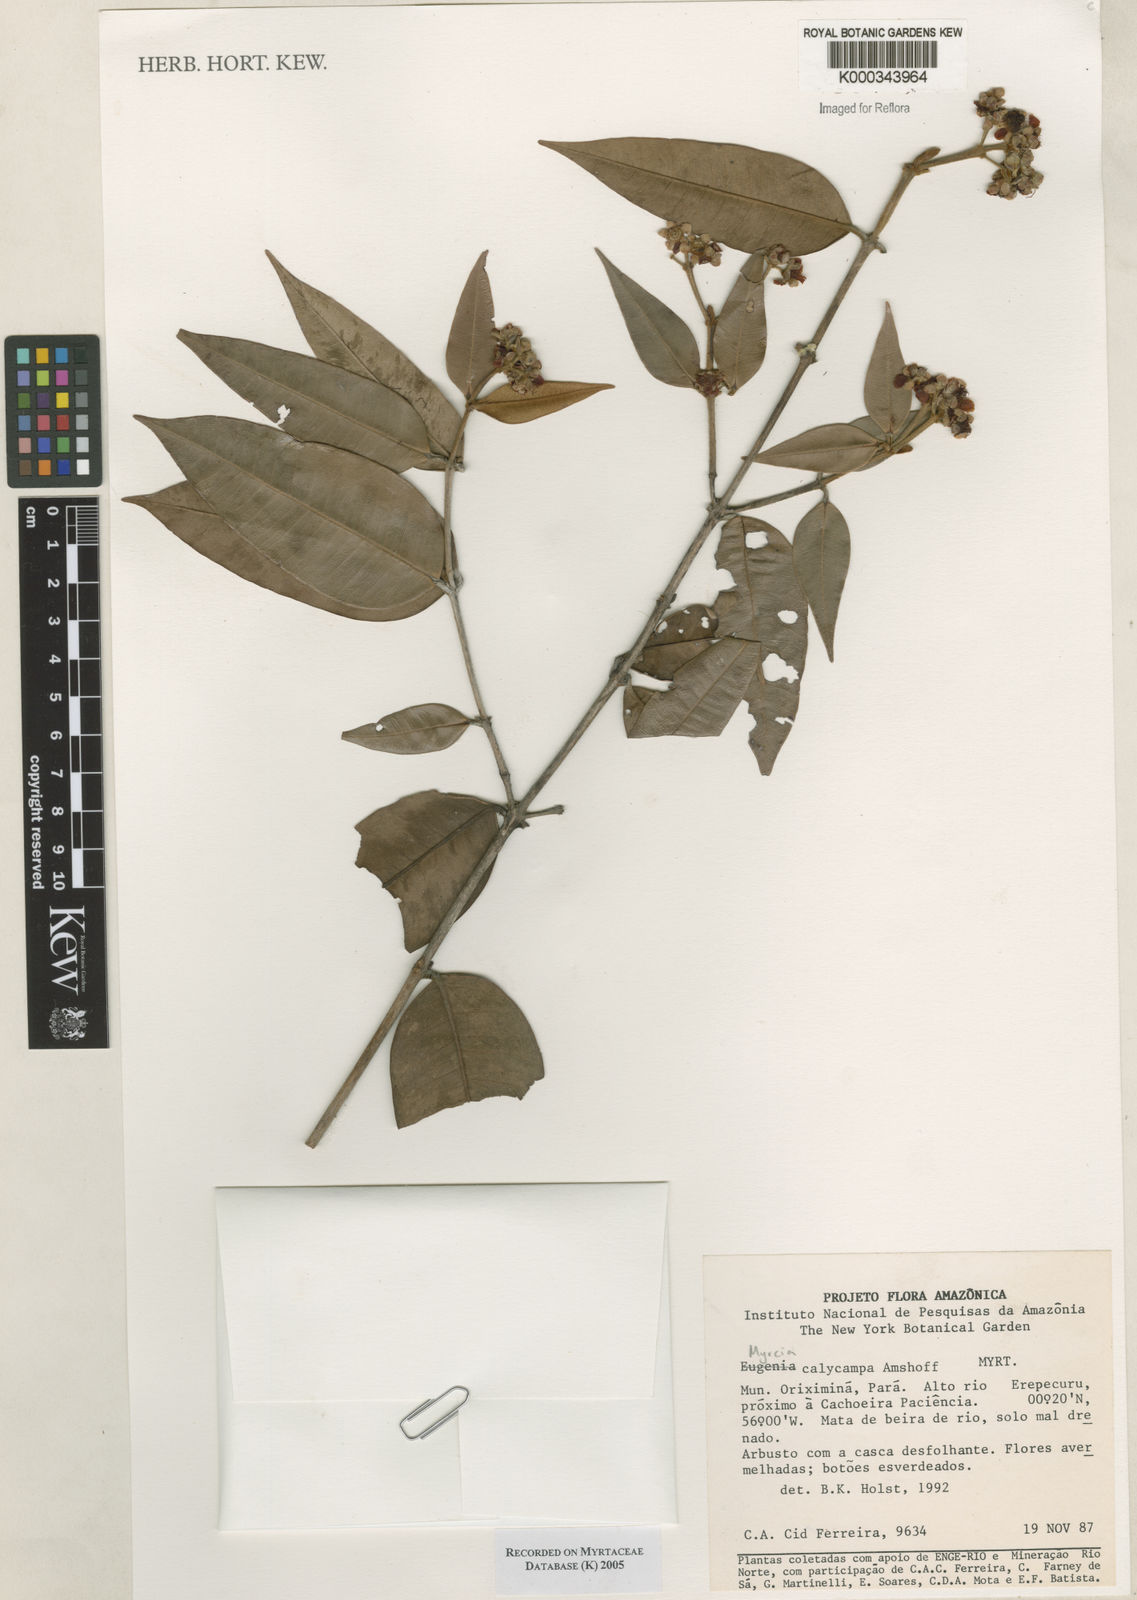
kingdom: Plantae
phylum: Tracheophyta
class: Magnoliopsida
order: Myrtales
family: Myrtaceae
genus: Myrcia
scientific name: Myrcia calycampa
